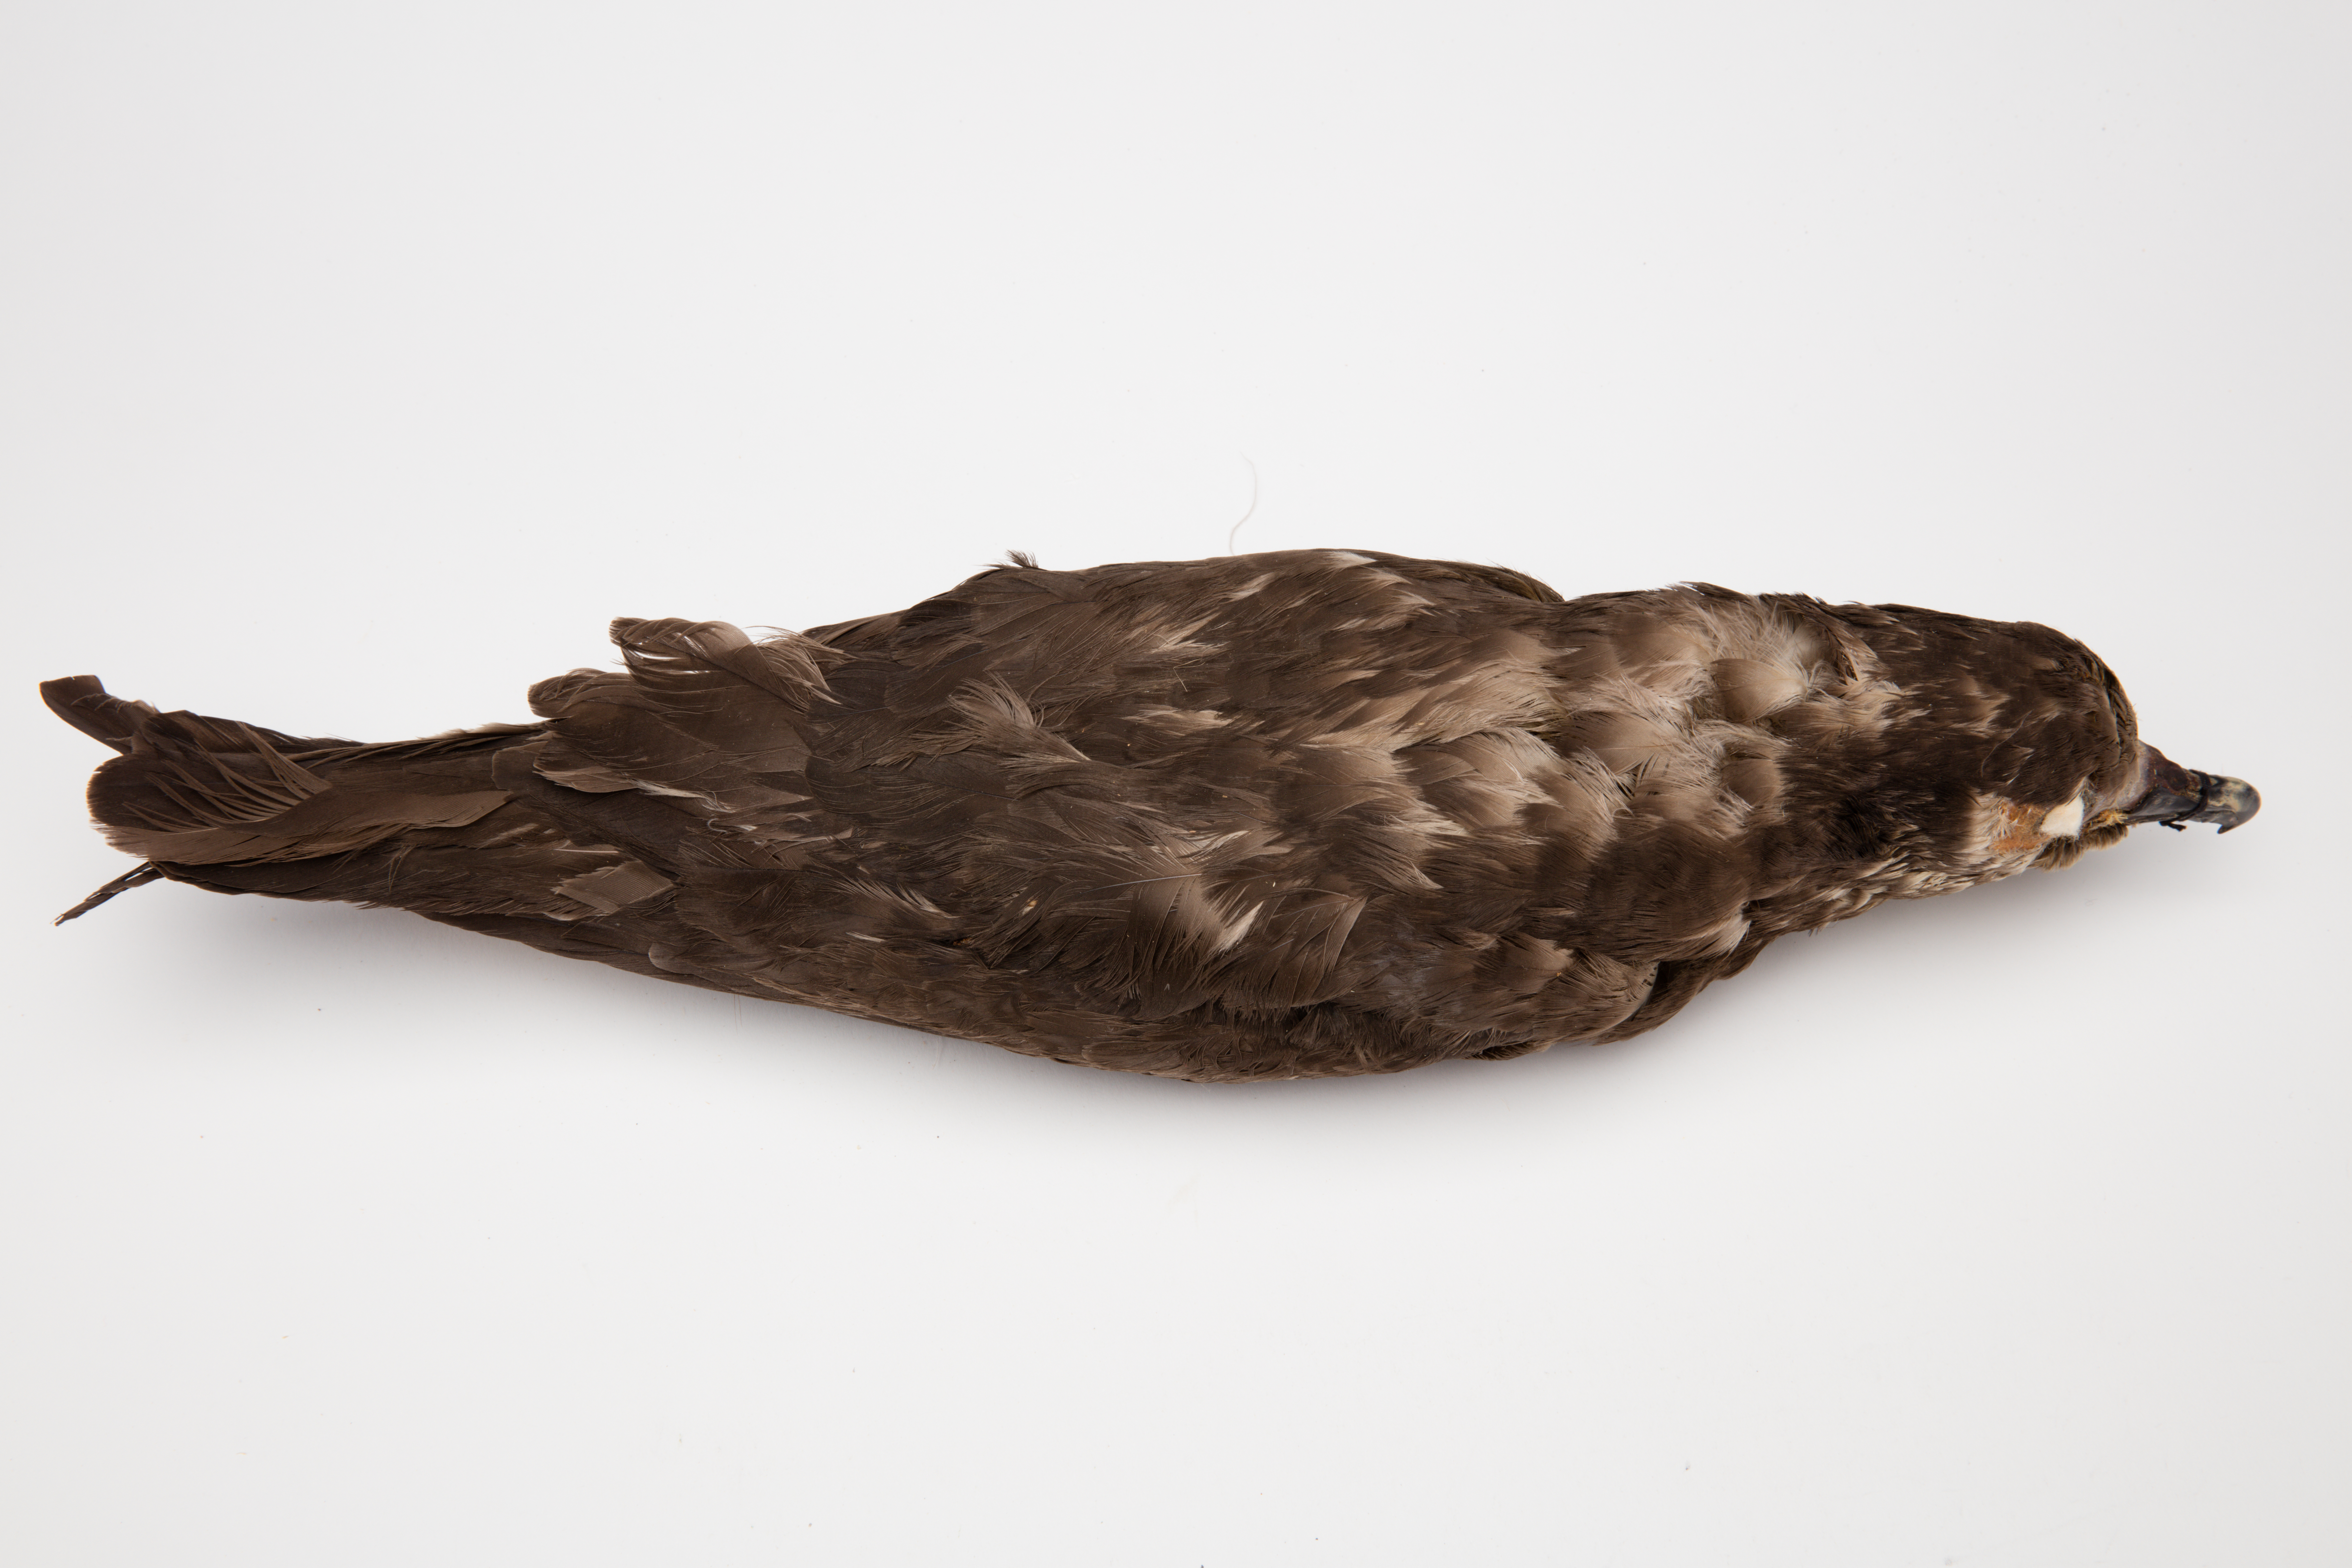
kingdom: Animalia
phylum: Chordata
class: Aves
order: Procellariiformes
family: Procellariidae
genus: Pterodroma
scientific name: Pterodroma macroptera
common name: Great-winged petrel
